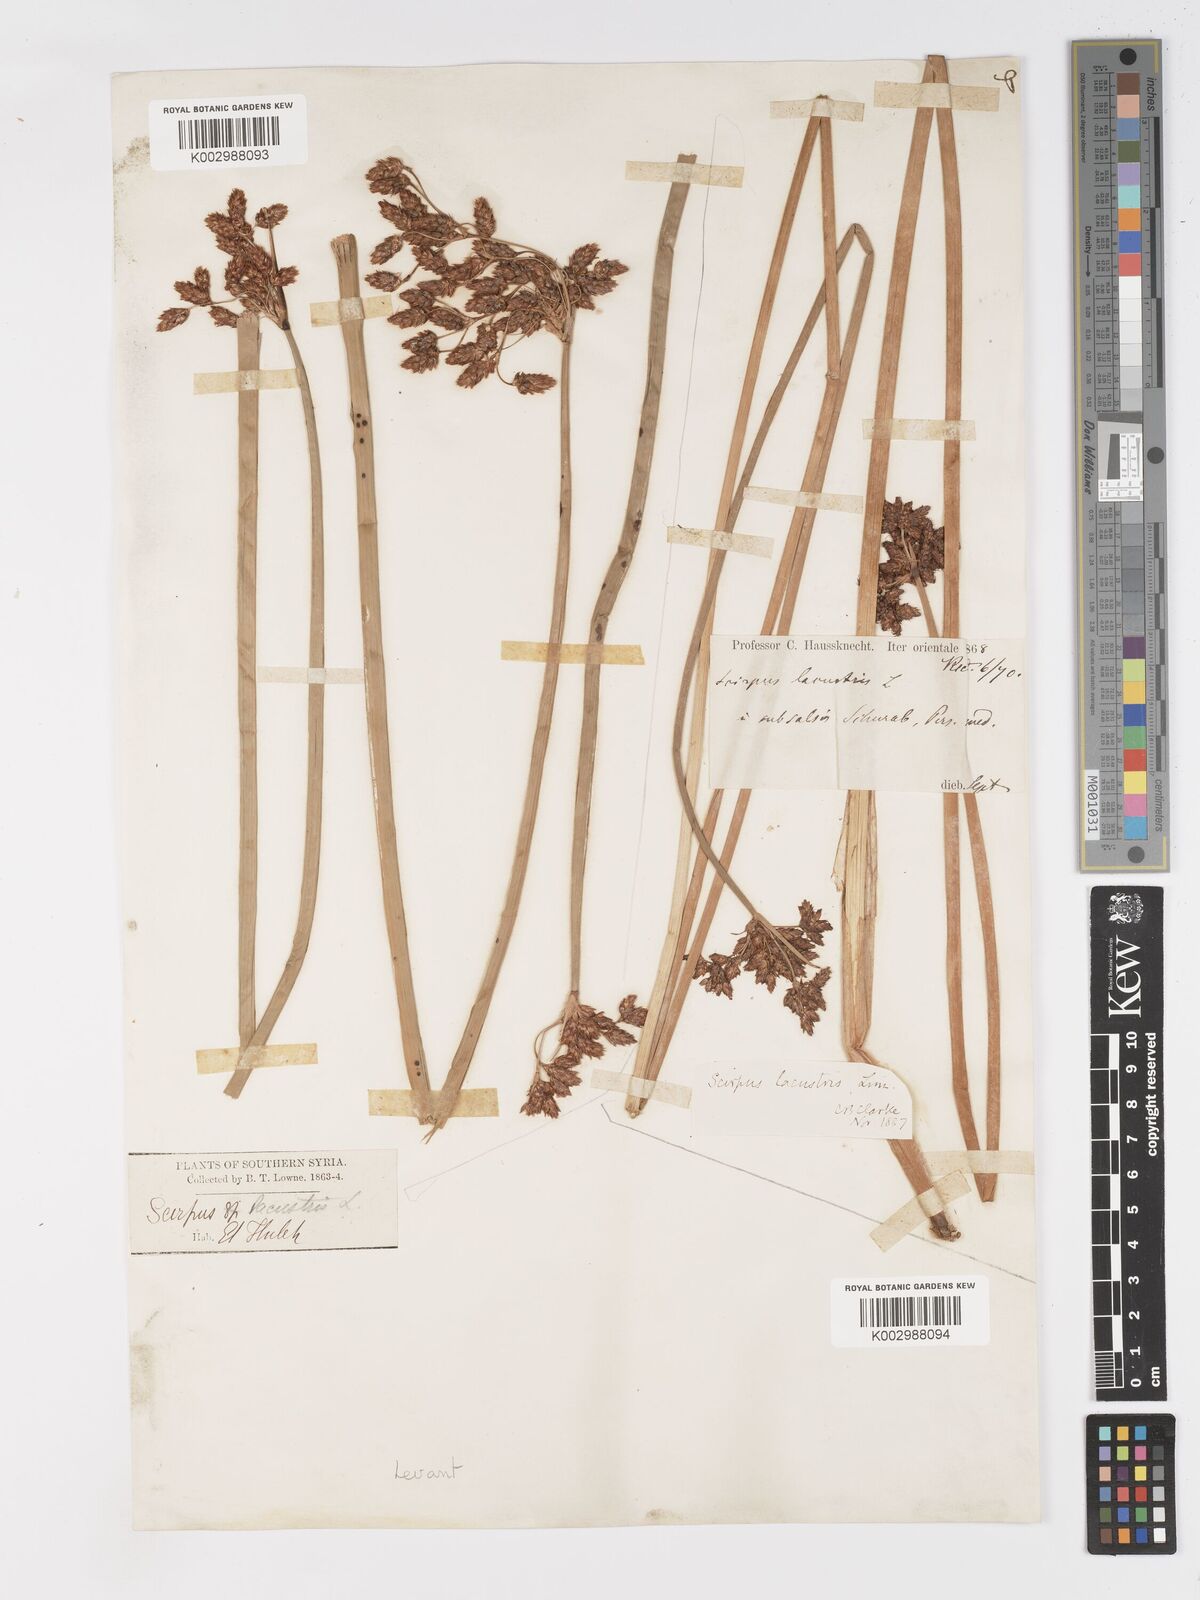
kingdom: Plantae
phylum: Tracheophyta
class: Liliopsida
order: Poales
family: Cyperaceae
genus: Schoenoplectus
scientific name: Schoenoplectus lacustris
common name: Common club-rush
